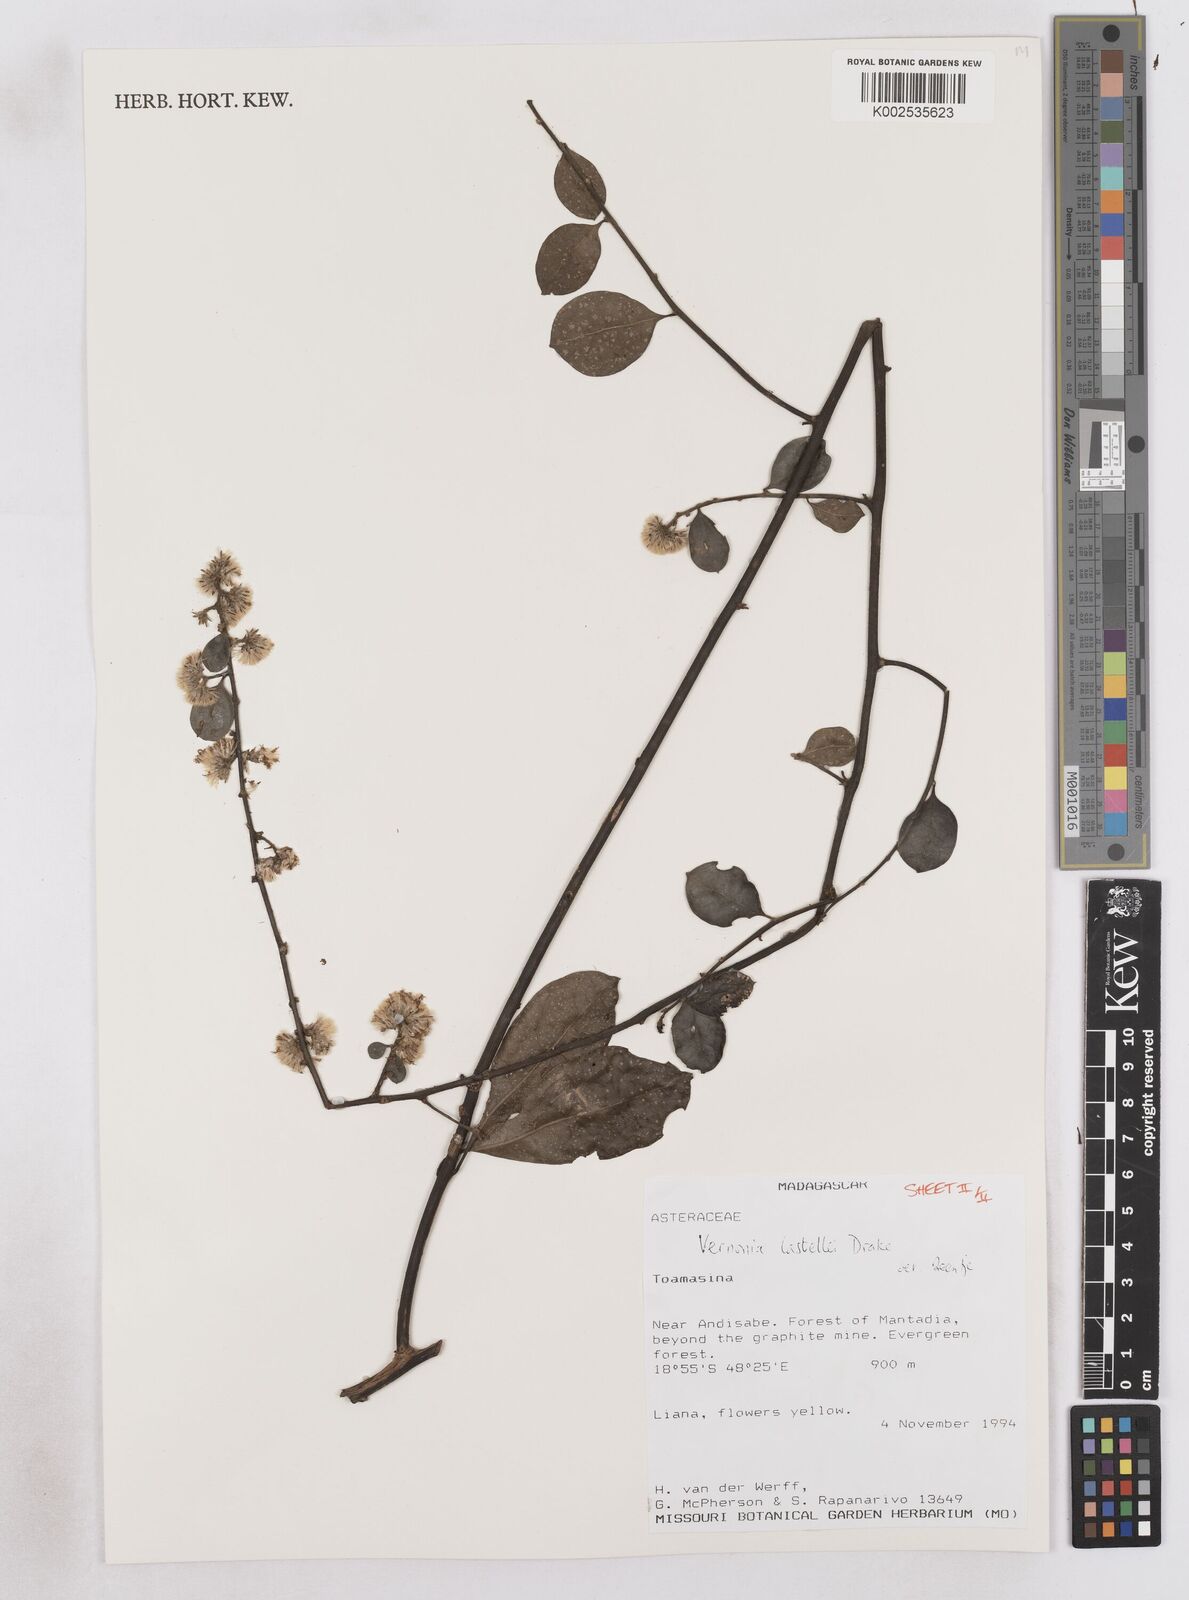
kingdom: Plantae
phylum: Tracheophyta
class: Magnoliopsida
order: Asterales
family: Asteraceae
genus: Distephanus
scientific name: Distephanus lastellei
